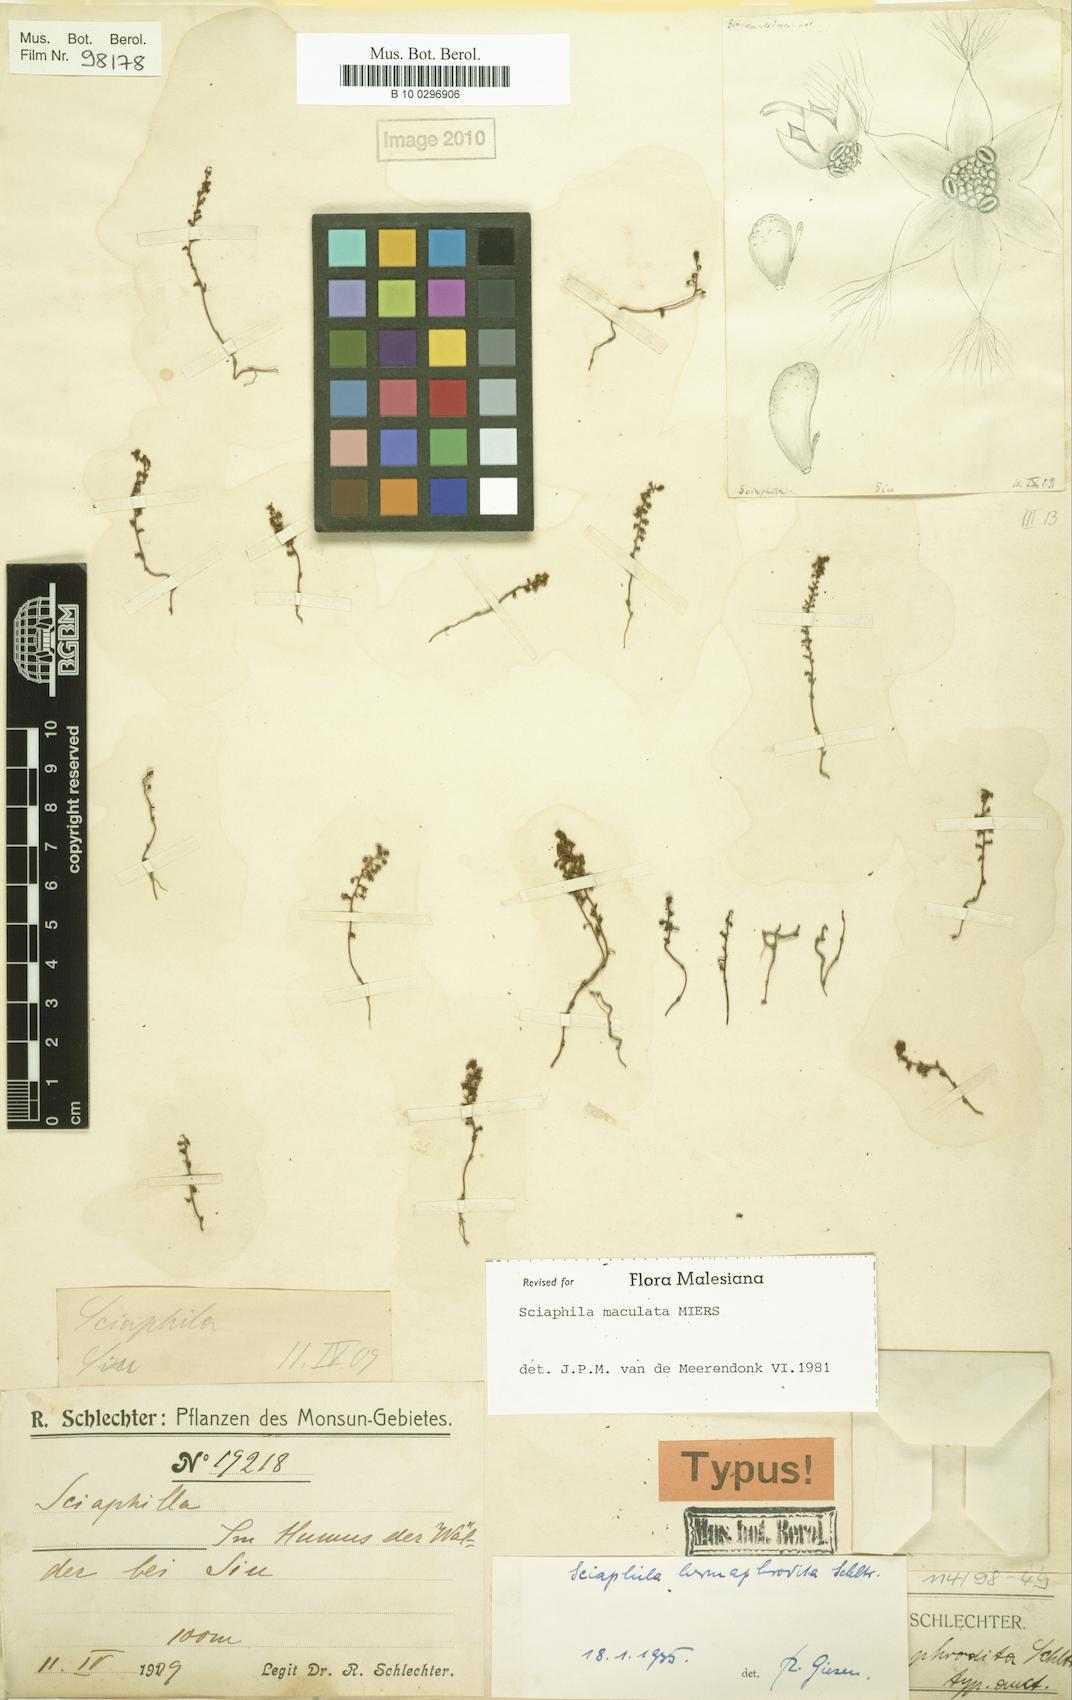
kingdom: Plantae
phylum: Tracheophyta
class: Liliopsida
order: Pandanales
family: Triuridaceae
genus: Sciaphila
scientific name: Sciaphila tenella
